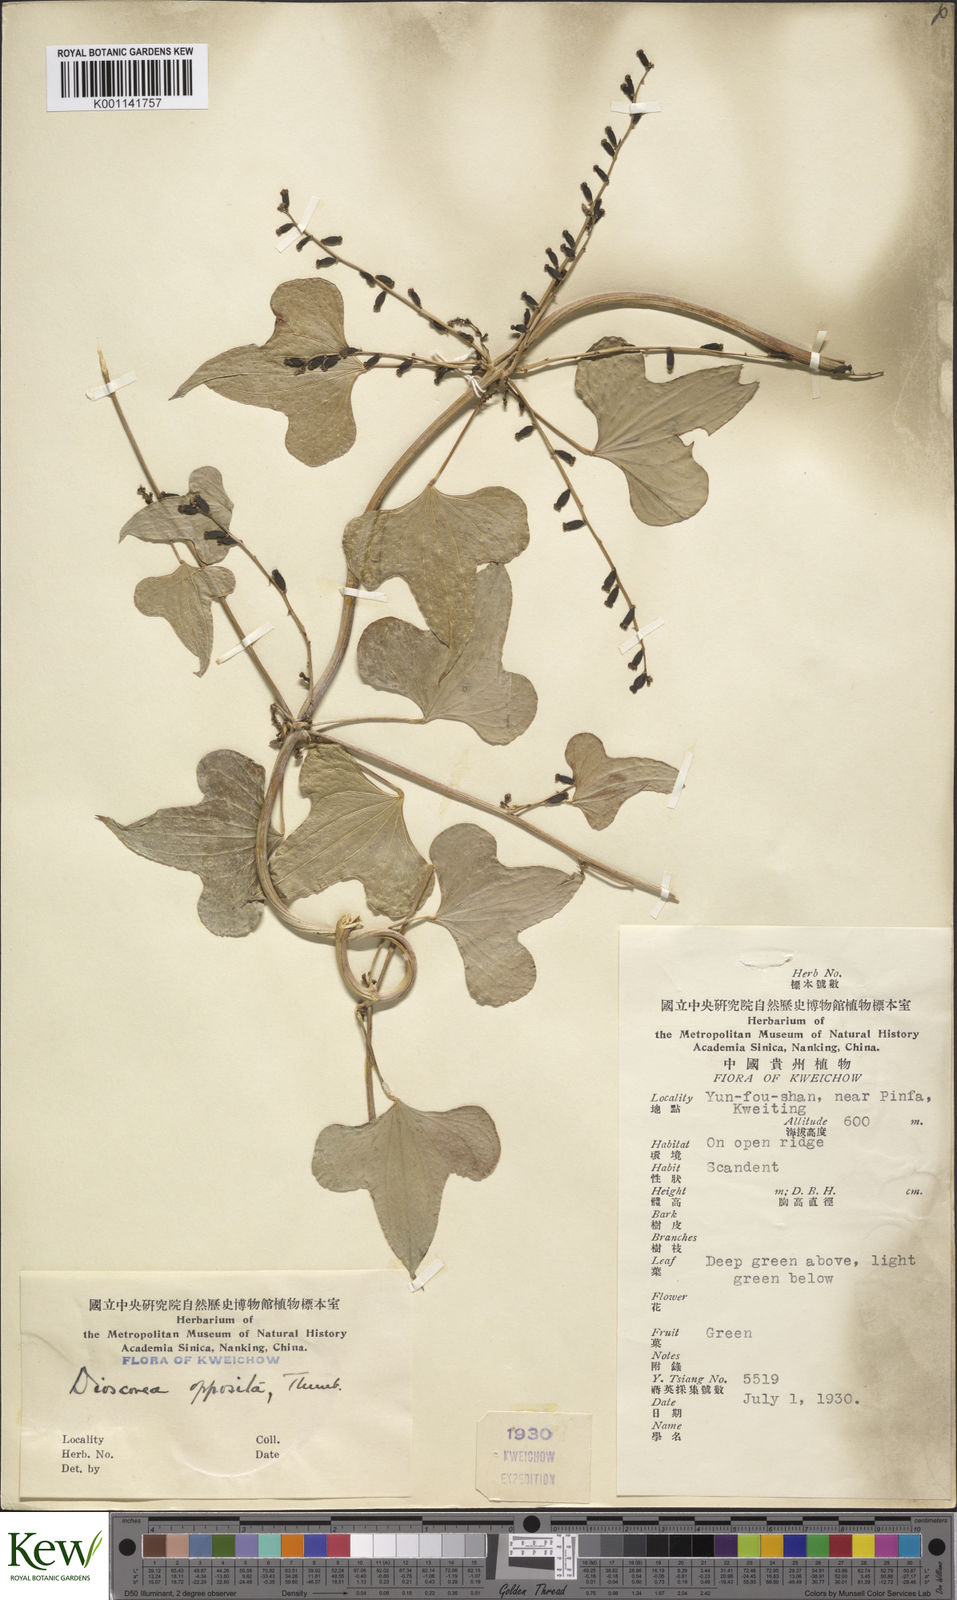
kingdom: Plantae
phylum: Tracheophyta
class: Liliopsida
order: Dioscoreales
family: Dioscoreaceae
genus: Dioscorea
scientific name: Dioscorea oppositifolia
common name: Chinese yam
